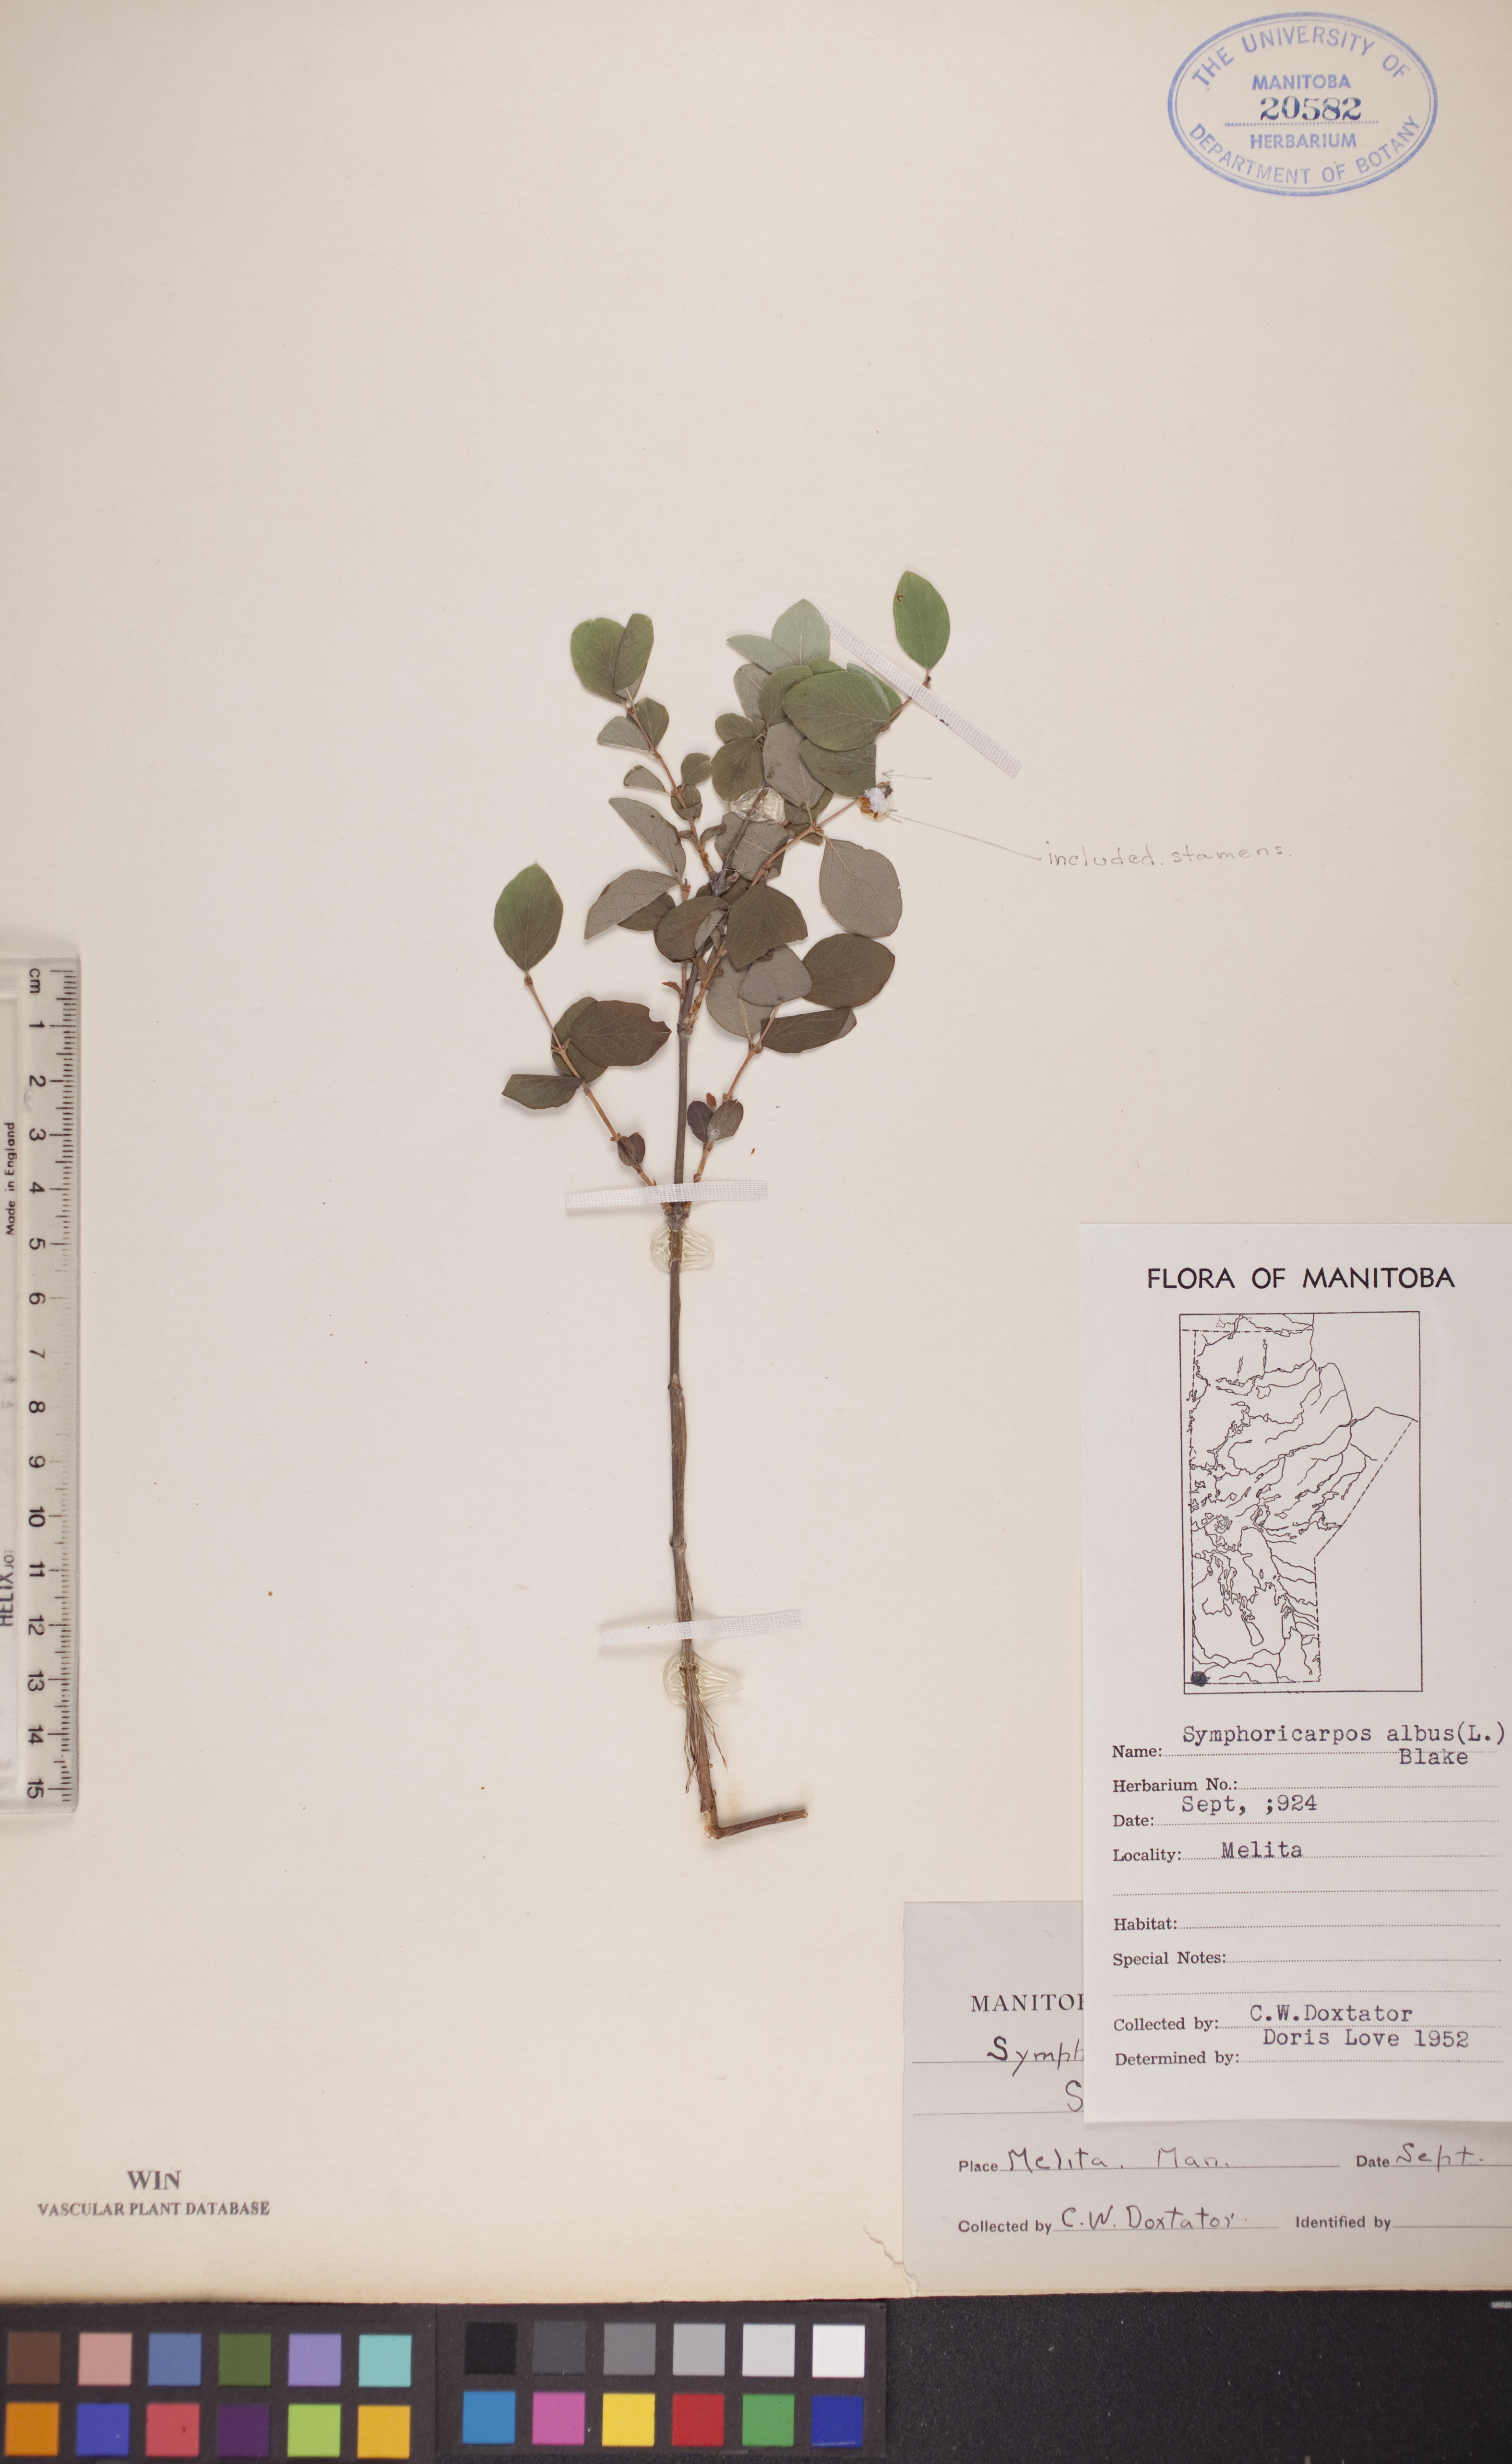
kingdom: Plantae
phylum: Tracheophyta
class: Magnoliopsida
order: Dipsacales
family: Caprifoliaceae
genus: Symphoricarpos
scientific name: Symphoricarpos albus
